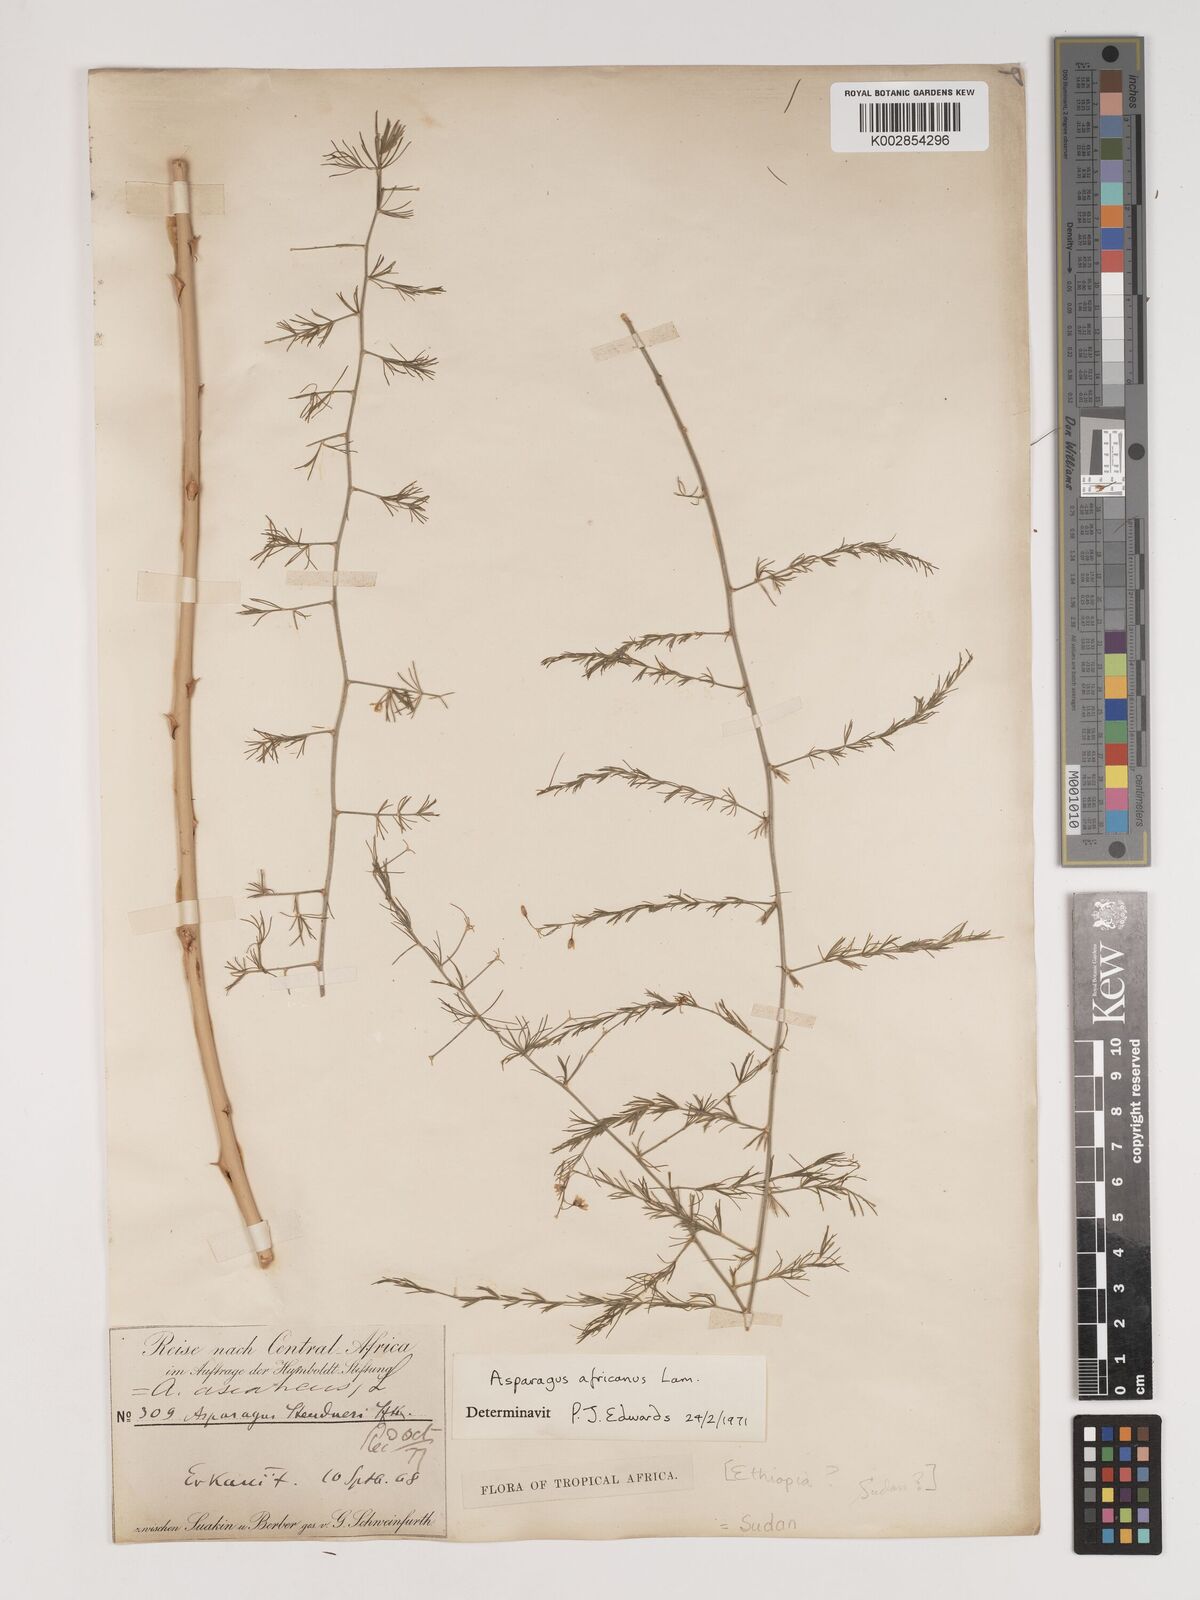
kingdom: Plantae
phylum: Tracheophyta
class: Liliopsida
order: Asparagales
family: Asparagaceae
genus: Asparagus
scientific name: Asparagus africanus
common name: Asparagus-fern
